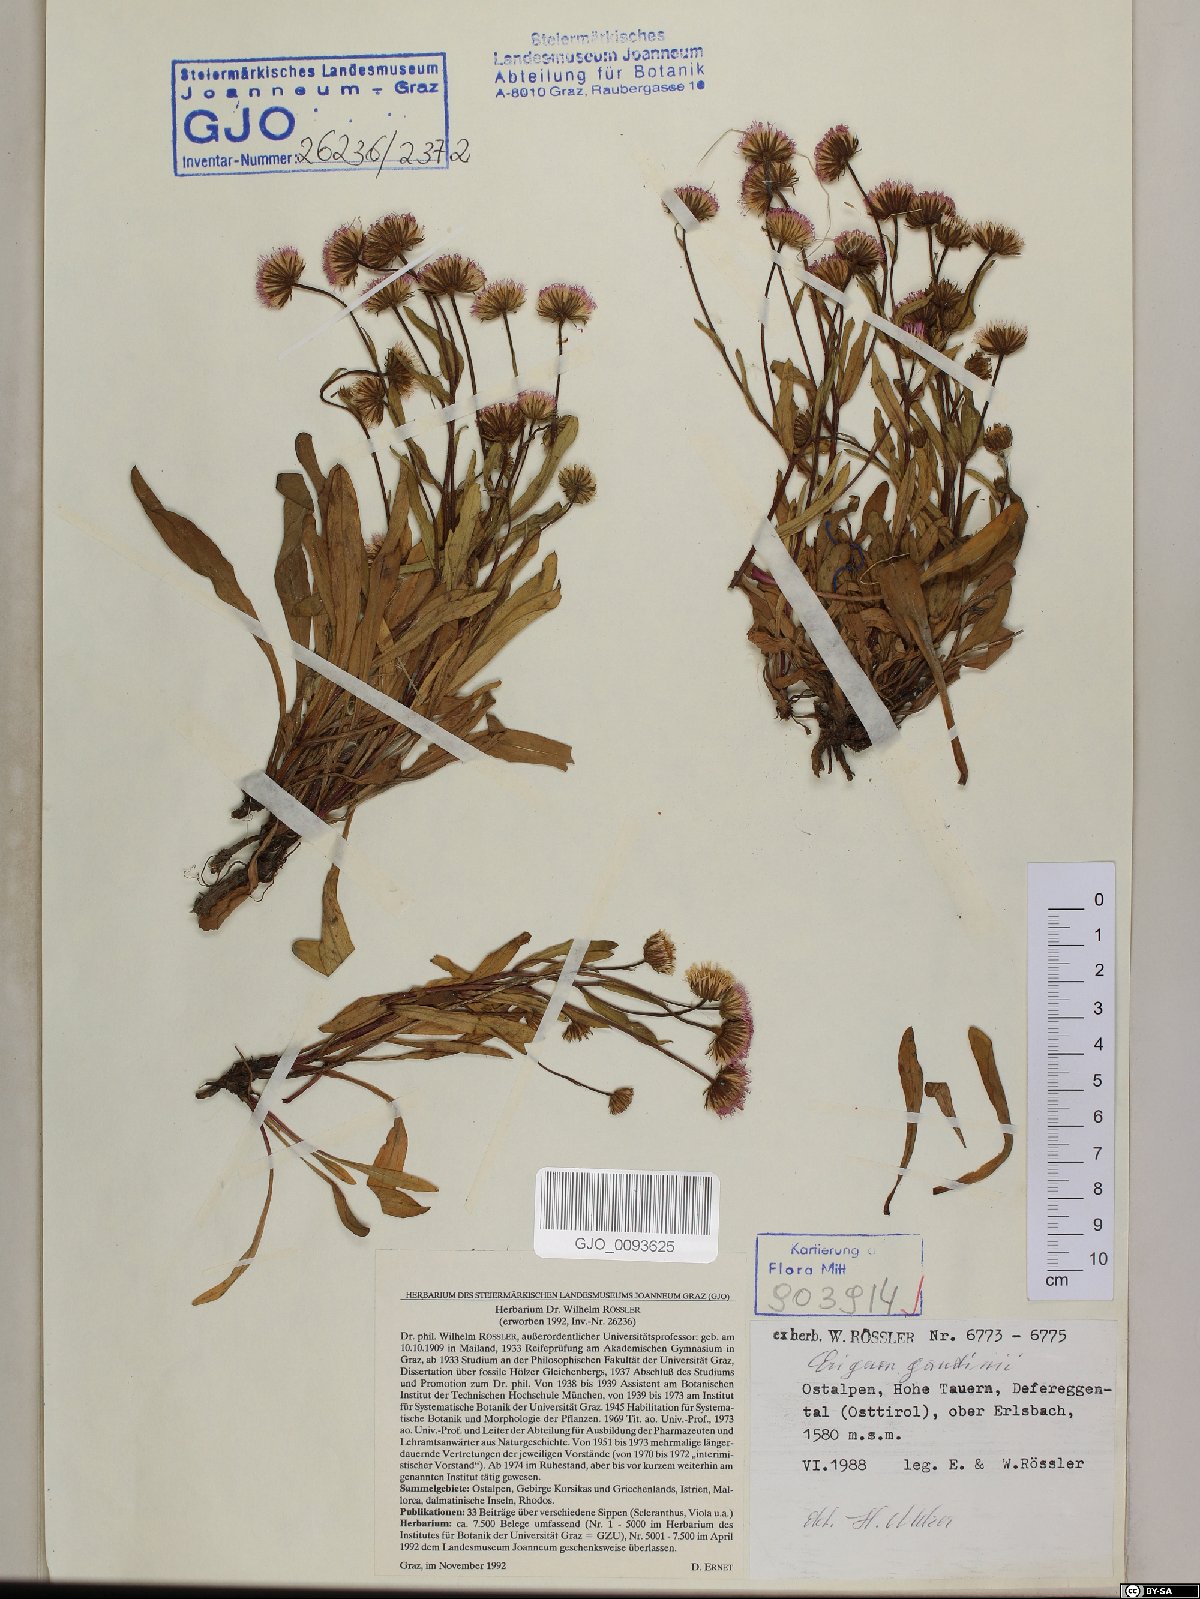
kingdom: Plantae
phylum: Tracheophyta
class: Magnoliopsida
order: Asterales
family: Asteraceae
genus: Erigeron
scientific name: Erigeron schleicheri
